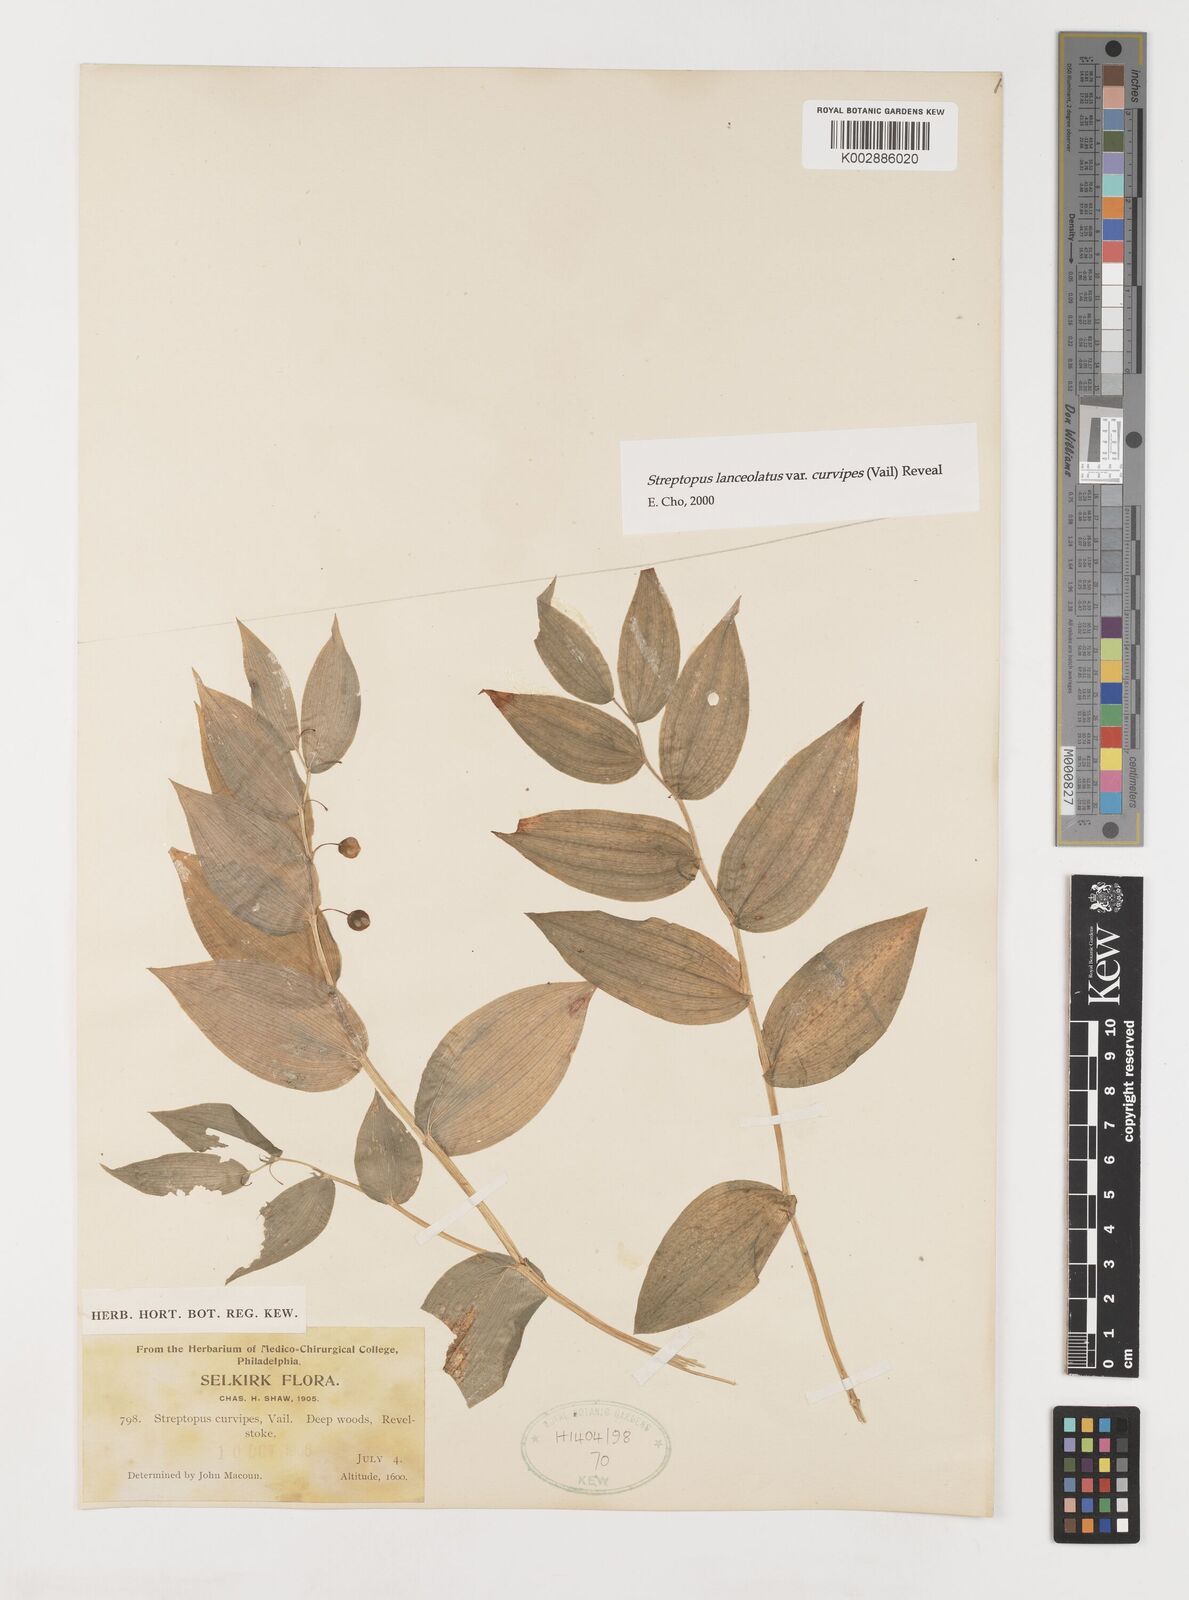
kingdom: Plantae
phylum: Tracheophyta
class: Liliopsida
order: Liliales
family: Liliaceae
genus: Streptopus
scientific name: Streptopus lanceolatus
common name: Rose mandarin
